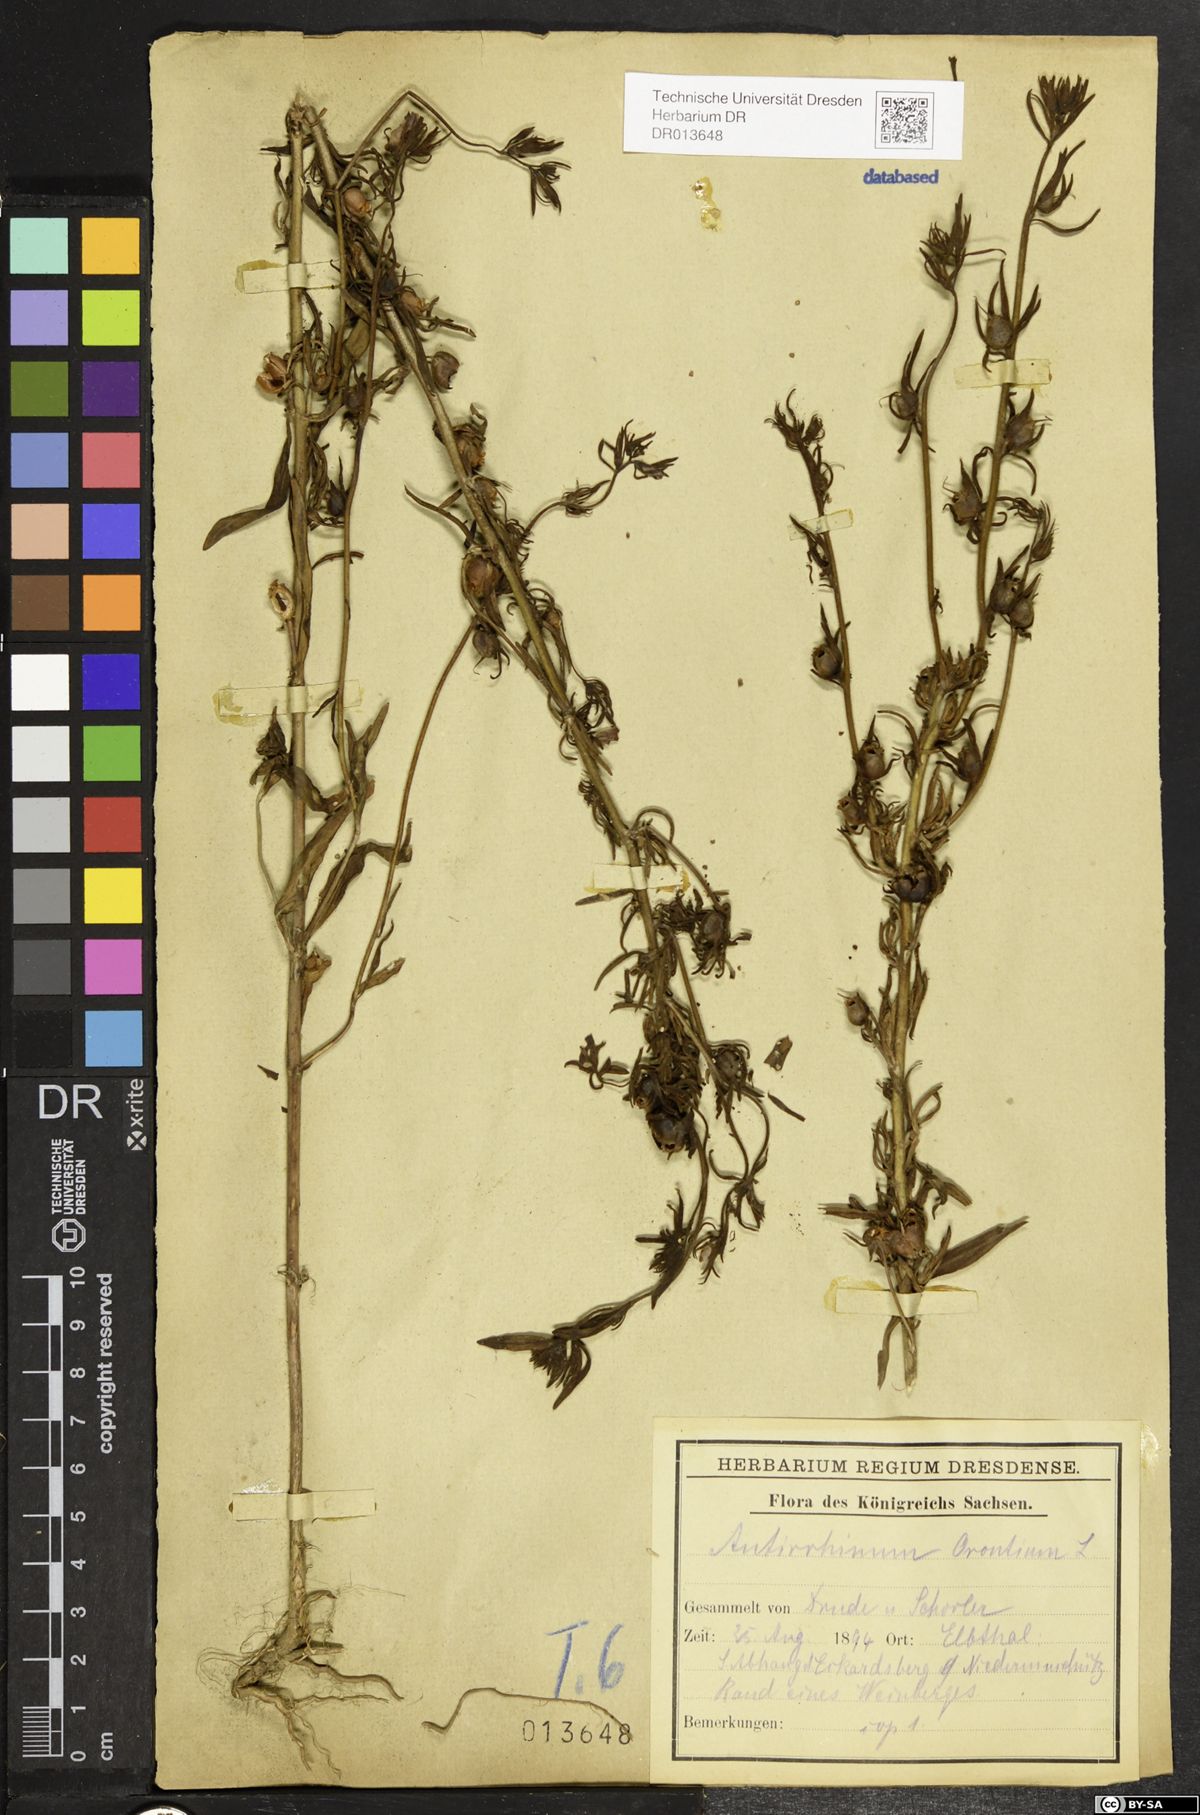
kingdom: Plantae
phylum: Tracheophyta
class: Magnoliopsida
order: Lamiales
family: Plantaginaceae
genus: Misopates
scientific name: Misopates orontium
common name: Weasel's-snout
